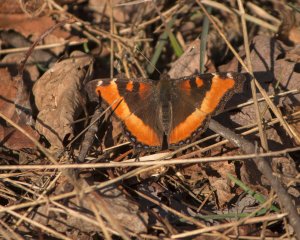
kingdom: Animalia
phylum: Arthropoda
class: Insecta
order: Lepidoptera
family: Nymphalidae
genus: Aglais
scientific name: Aglais milberti
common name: Milbert's Tortoiseshell
